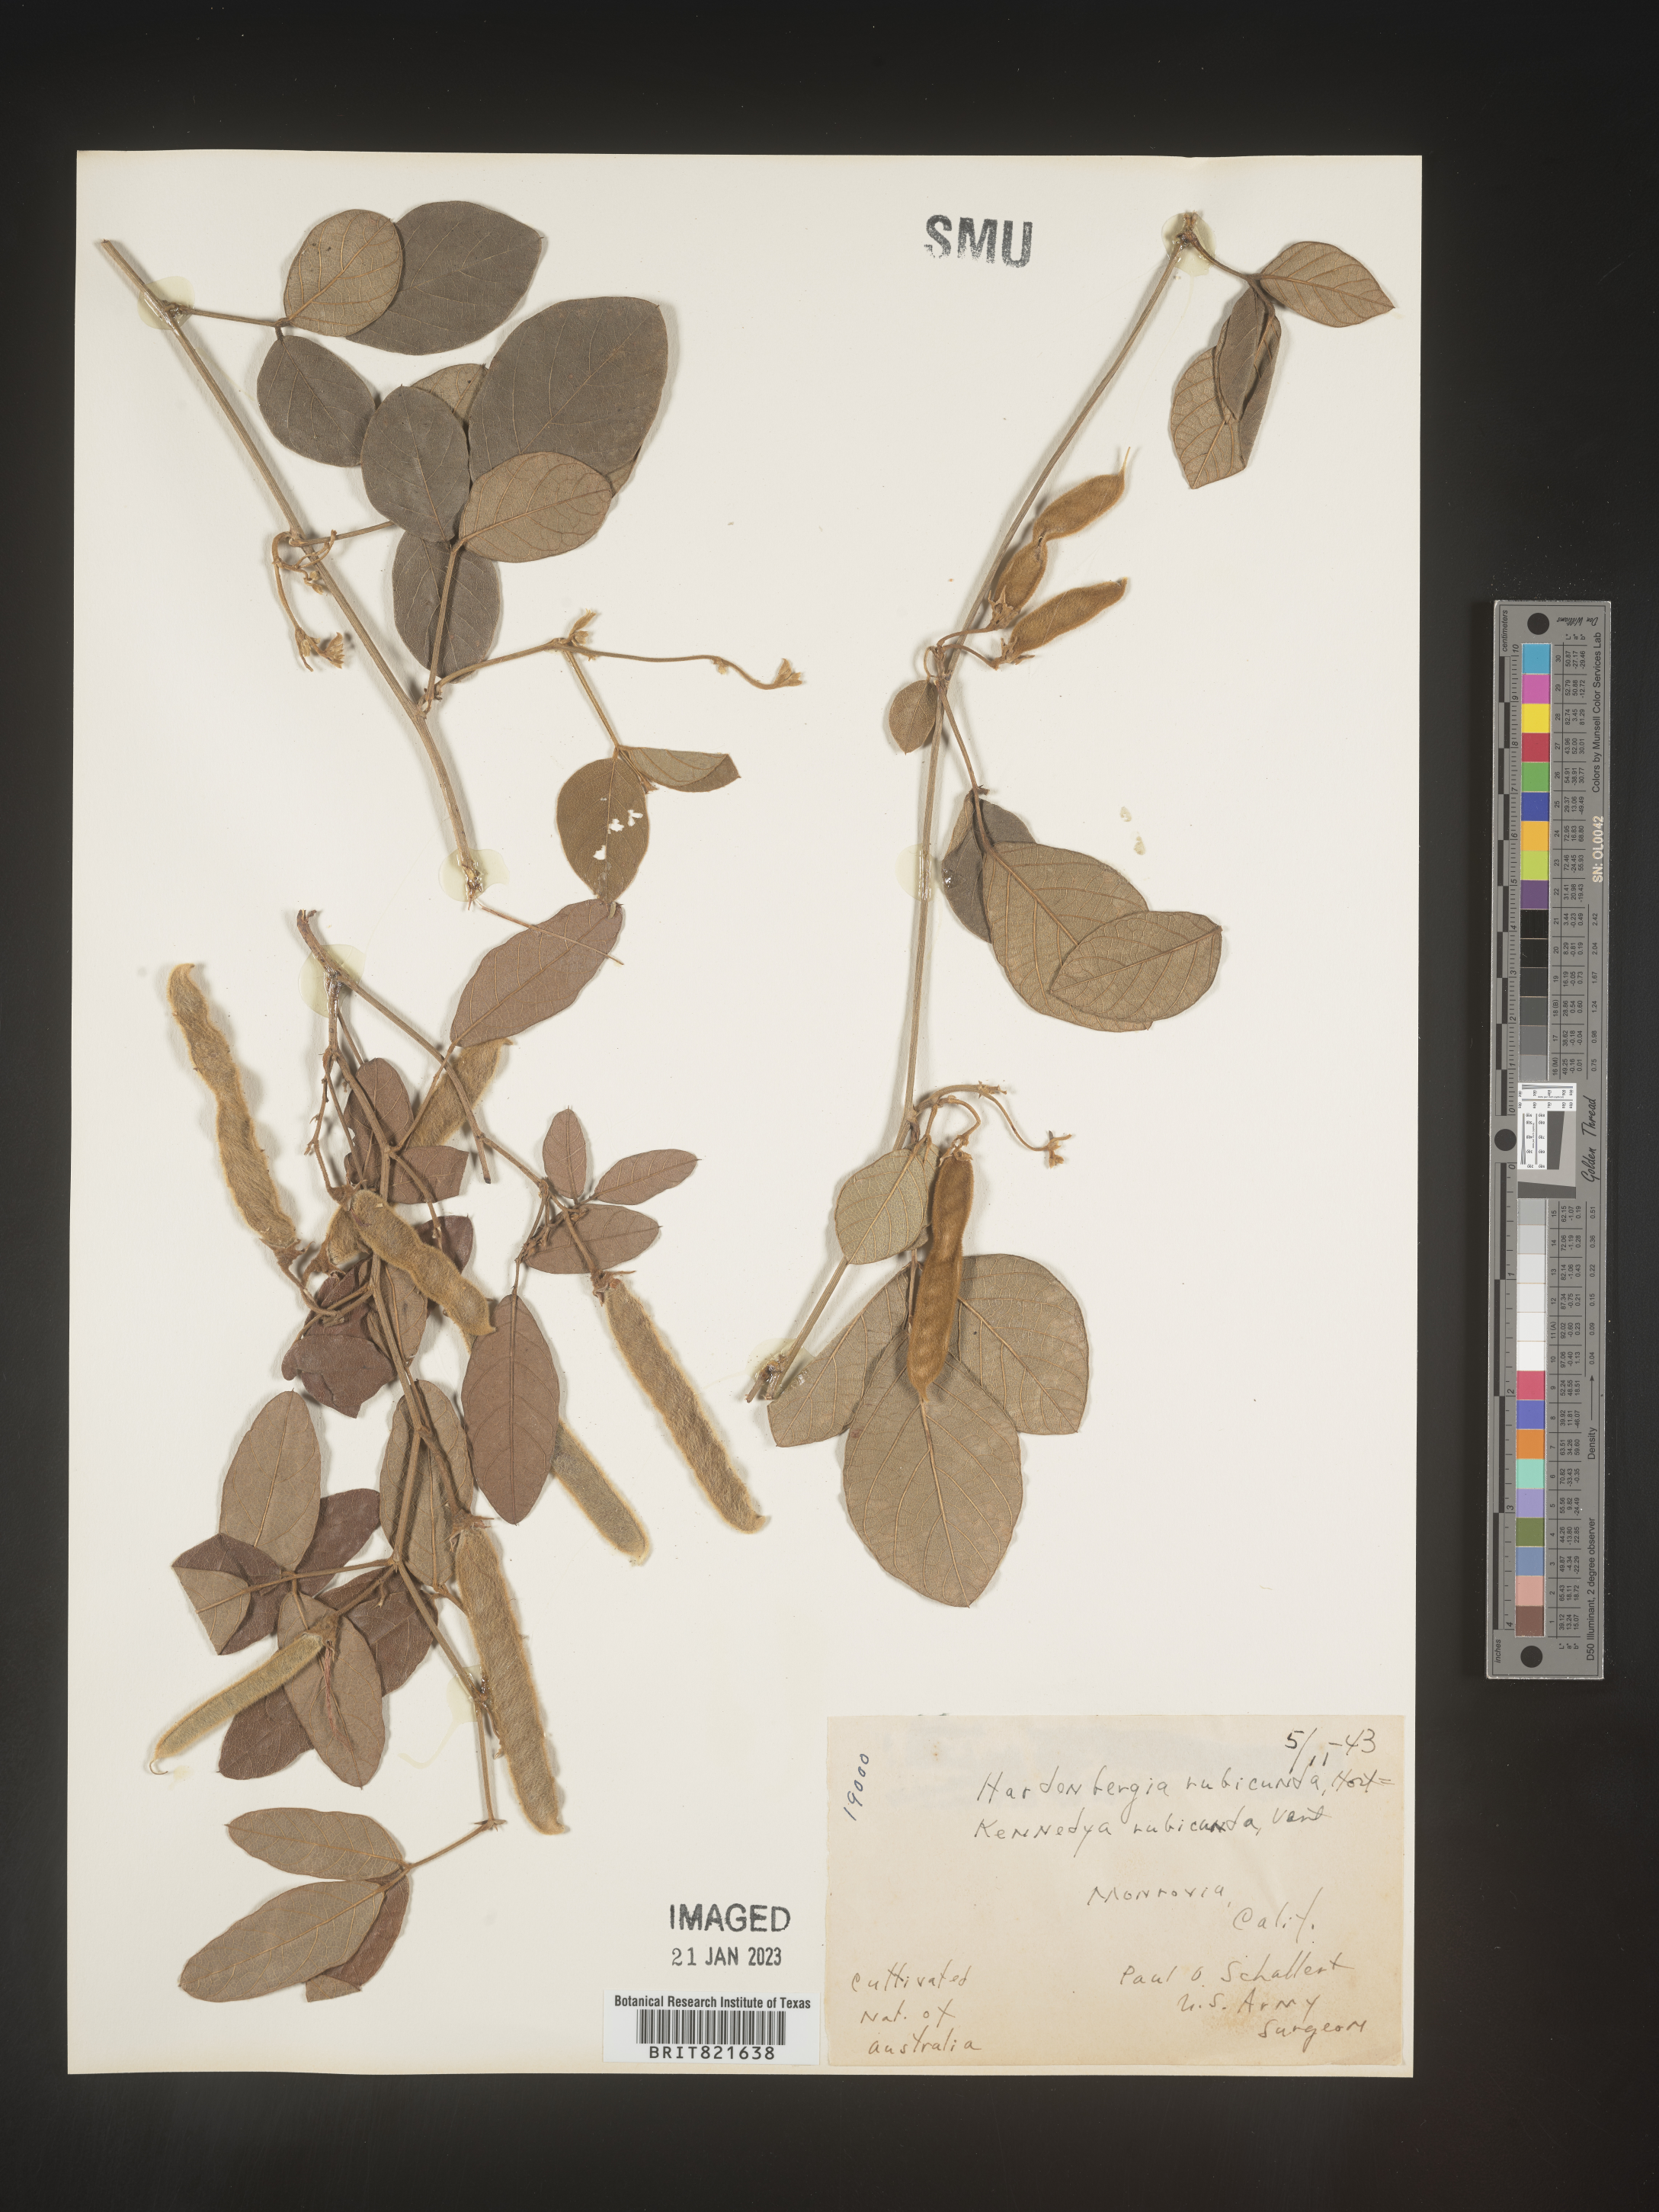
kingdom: Plantae
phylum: Tracheophyta
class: Magnoliopsida
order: Fabales
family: Fabaceae
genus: Kennedya
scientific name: Kennedya
